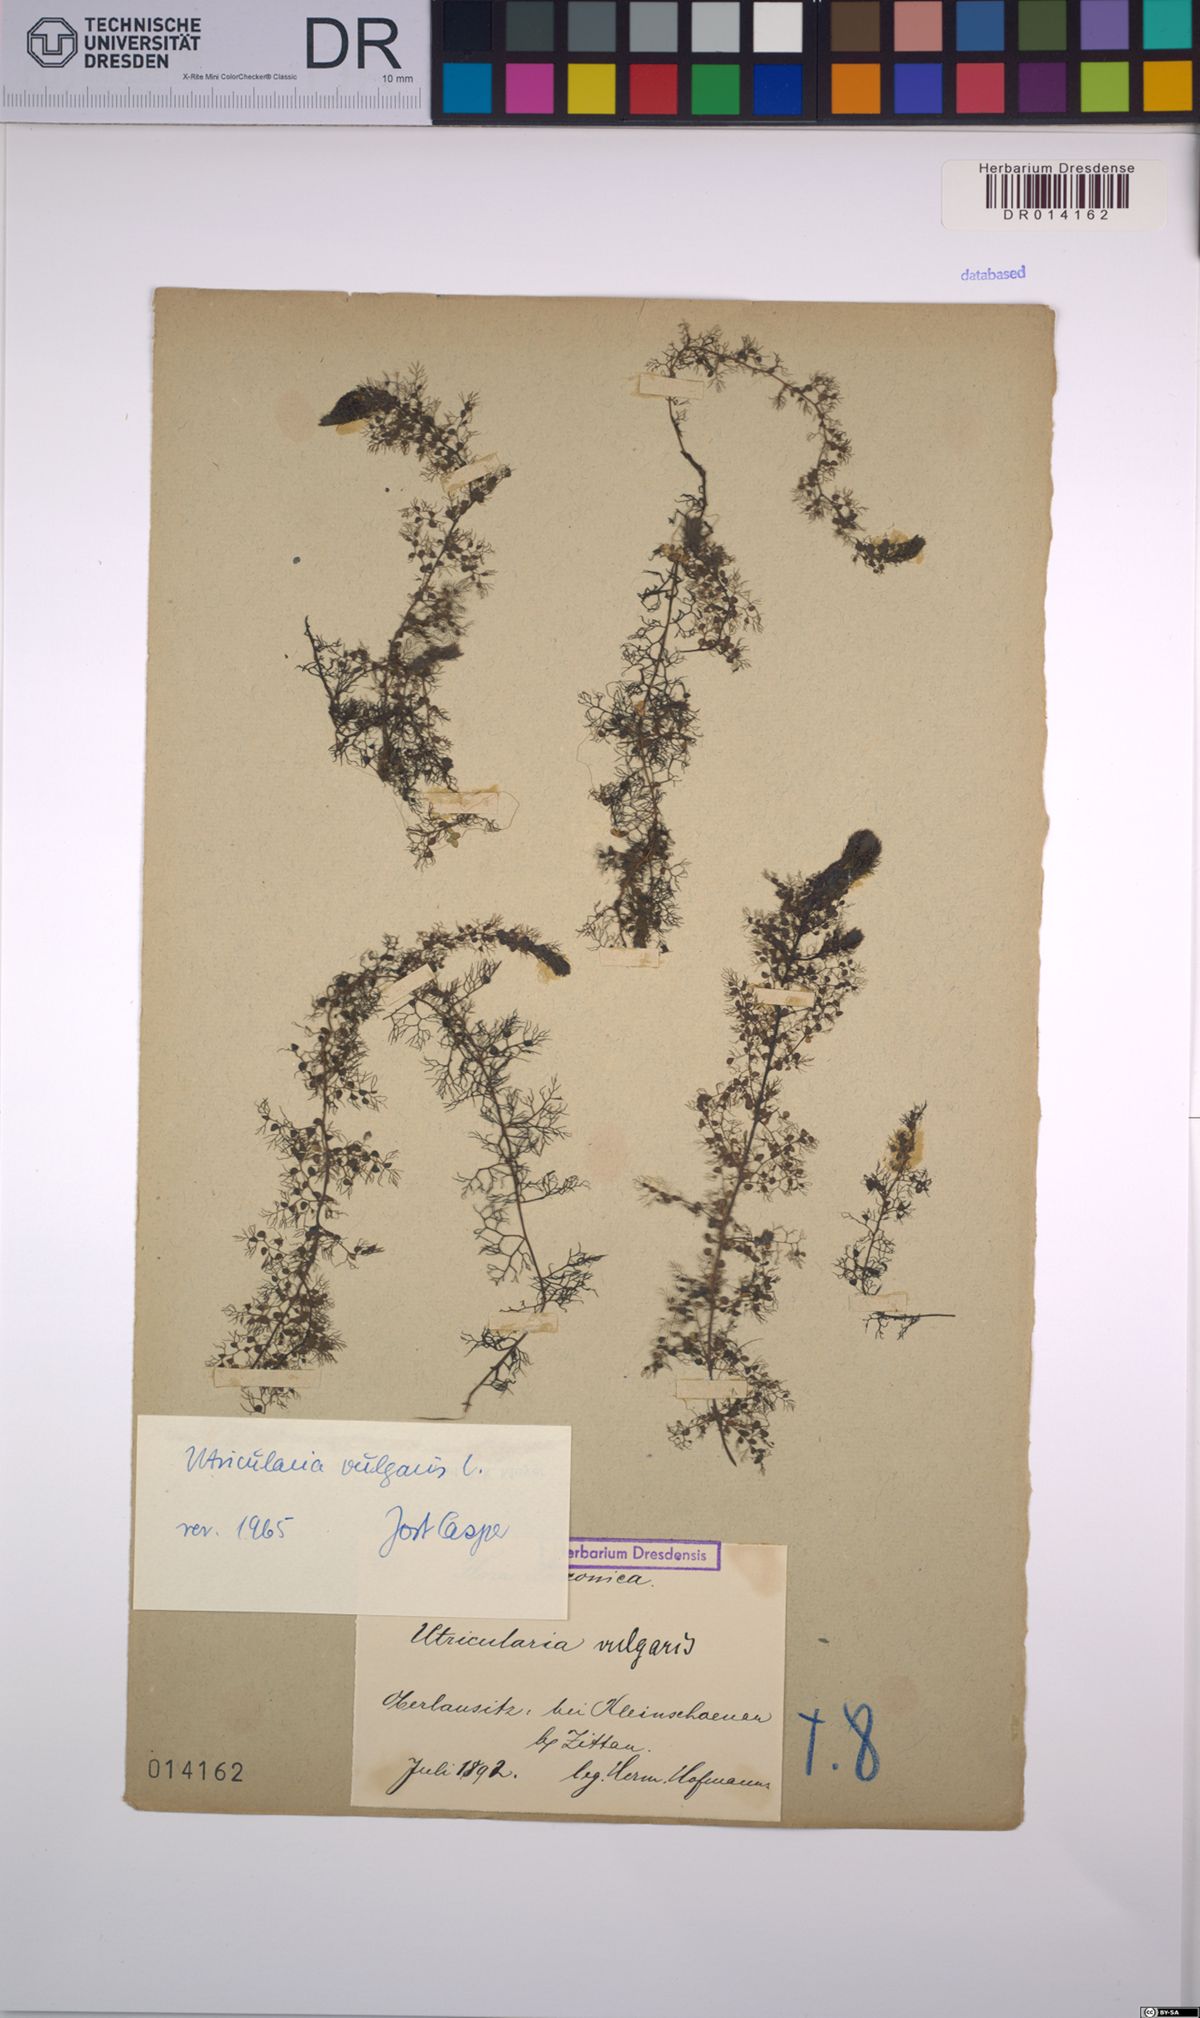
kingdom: Plantae
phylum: Tracheophyta
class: Magnoliopsida
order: Lamiales
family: Lentibulariaceae
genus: Utricularia
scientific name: Utricularia vulgaris
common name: Greater bladderwort
